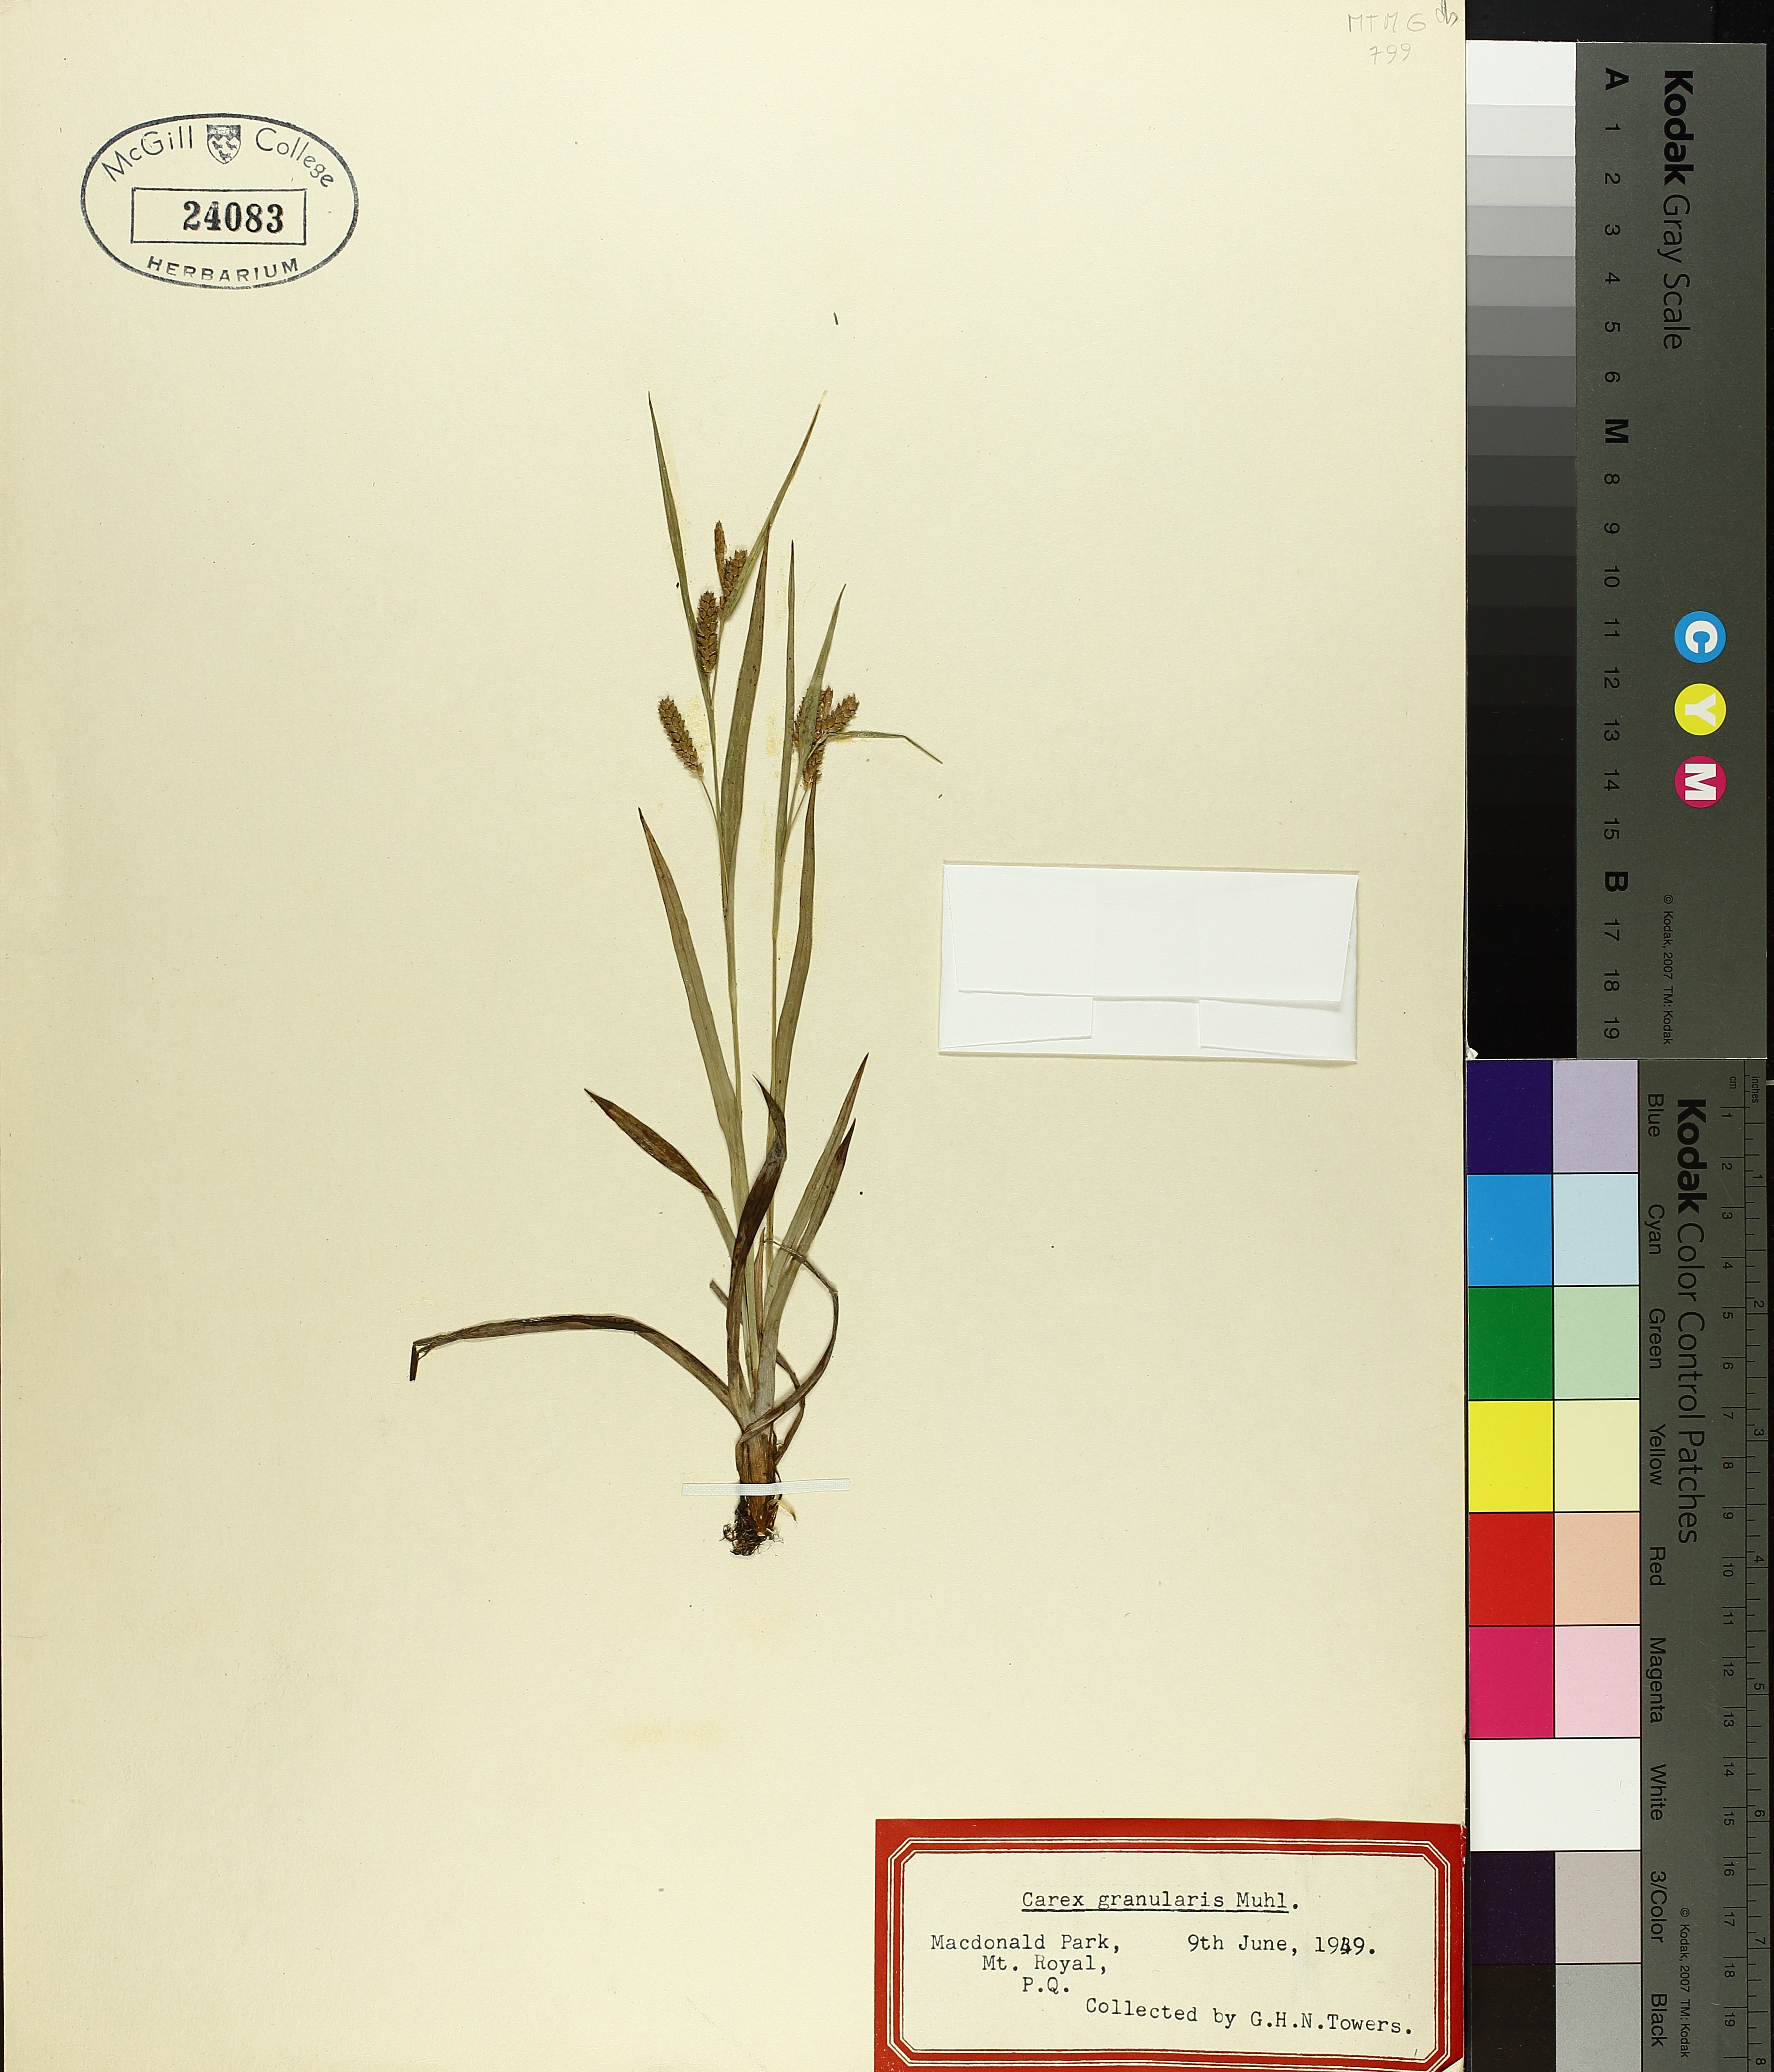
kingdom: Plantae
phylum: Tracheophyta
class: Liliopsida
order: Poales
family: Cyperaceae
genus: Carex
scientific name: Carex granularis
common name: Granular sedge
